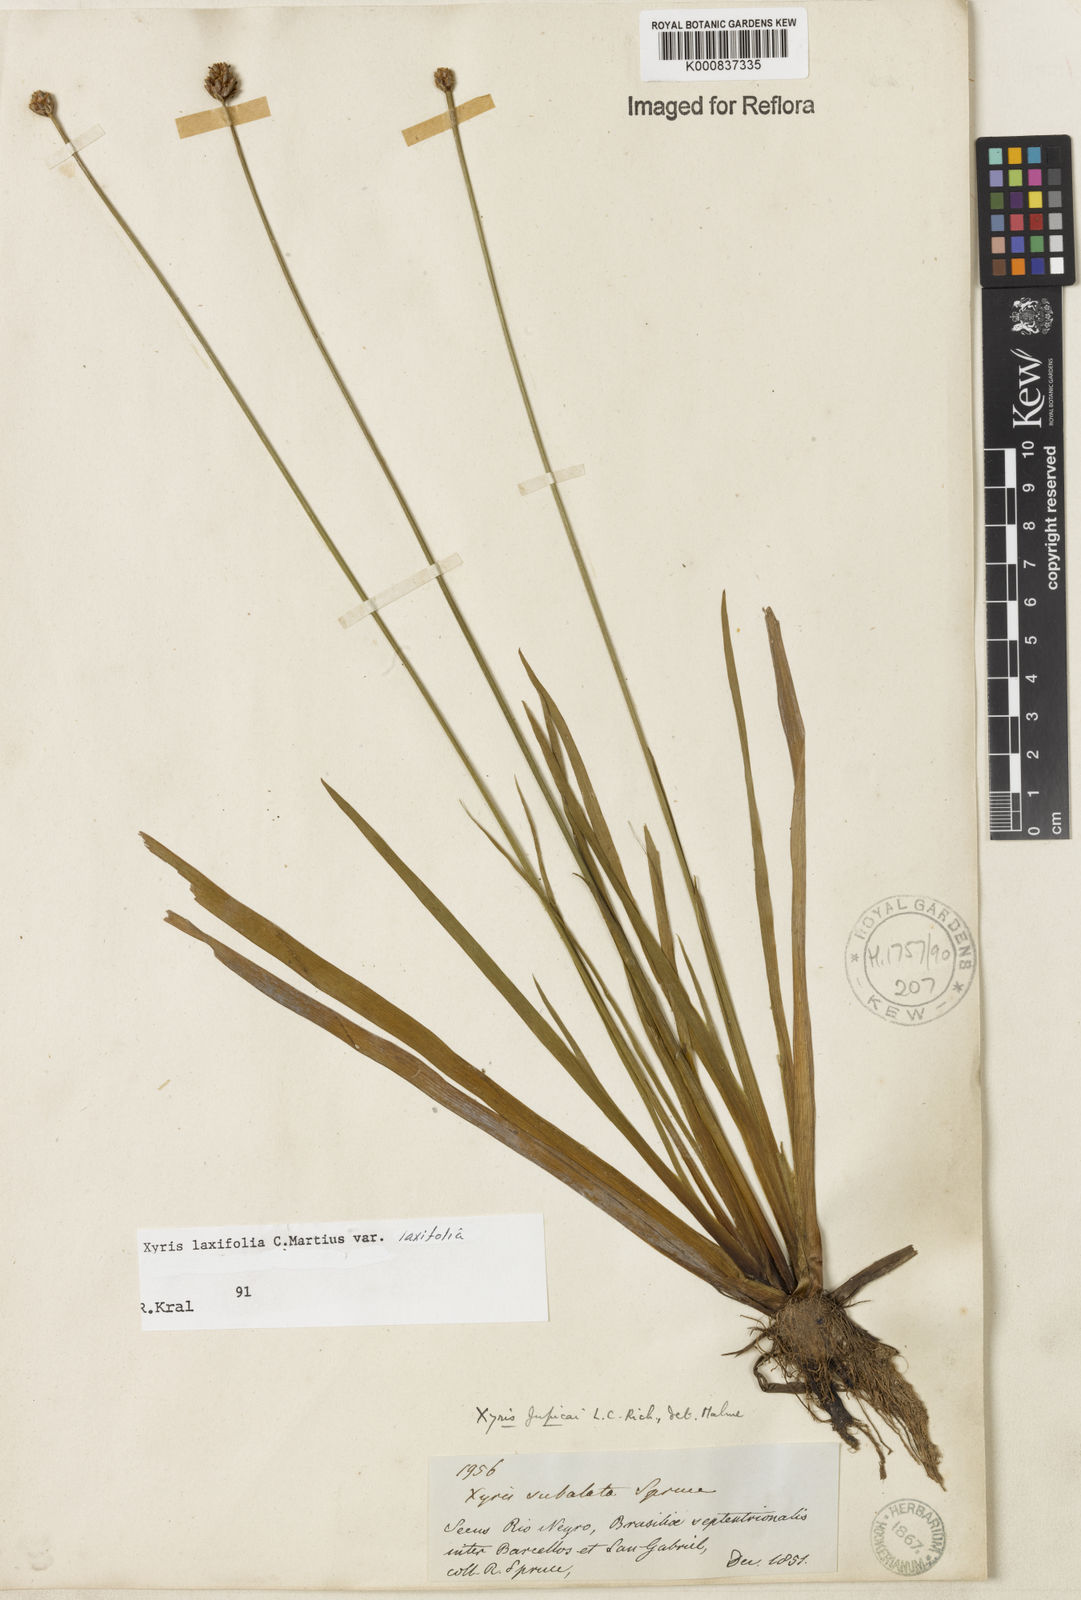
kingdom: Plantae
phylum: Tracheophyta
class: Liliopsida
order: Poales
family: Xyridaceae
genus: Xyris
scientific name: Xyris laxifolia
